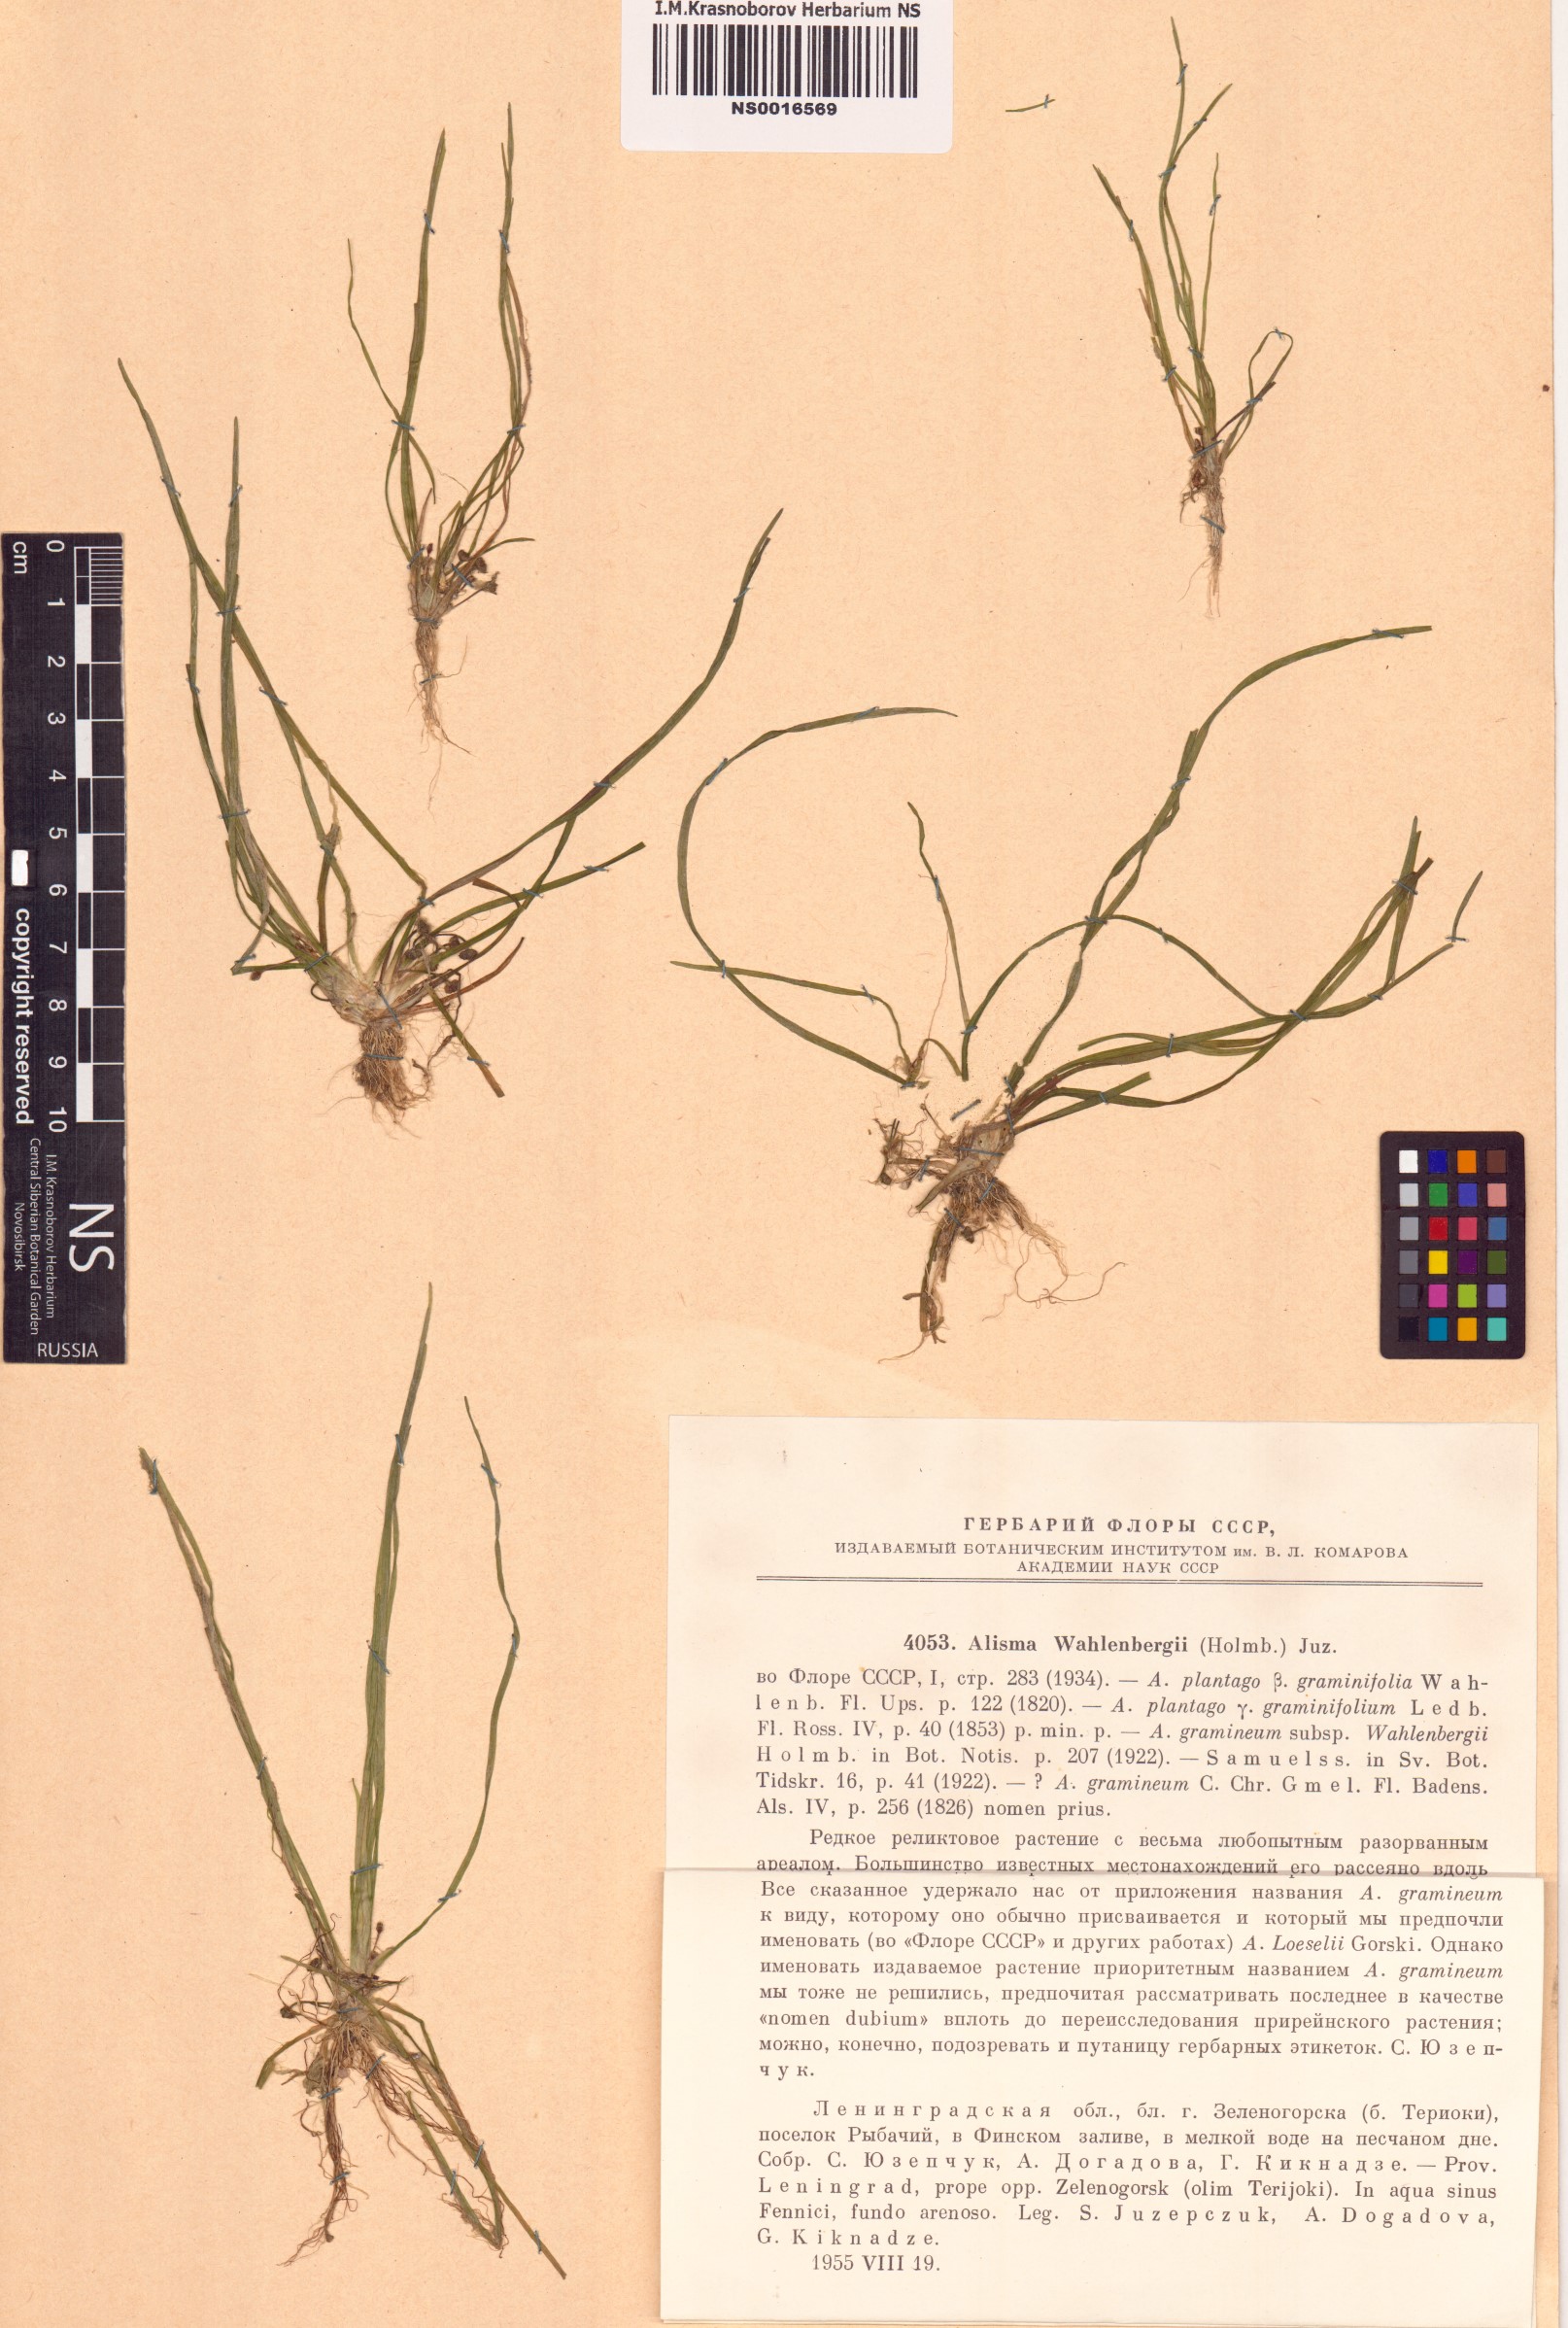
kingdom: Plantae
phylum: Tracheophyta
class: Liliopsida
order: Alismatales
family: Alismataceae
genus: Alisma
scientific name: Alisma wahlenbergii
